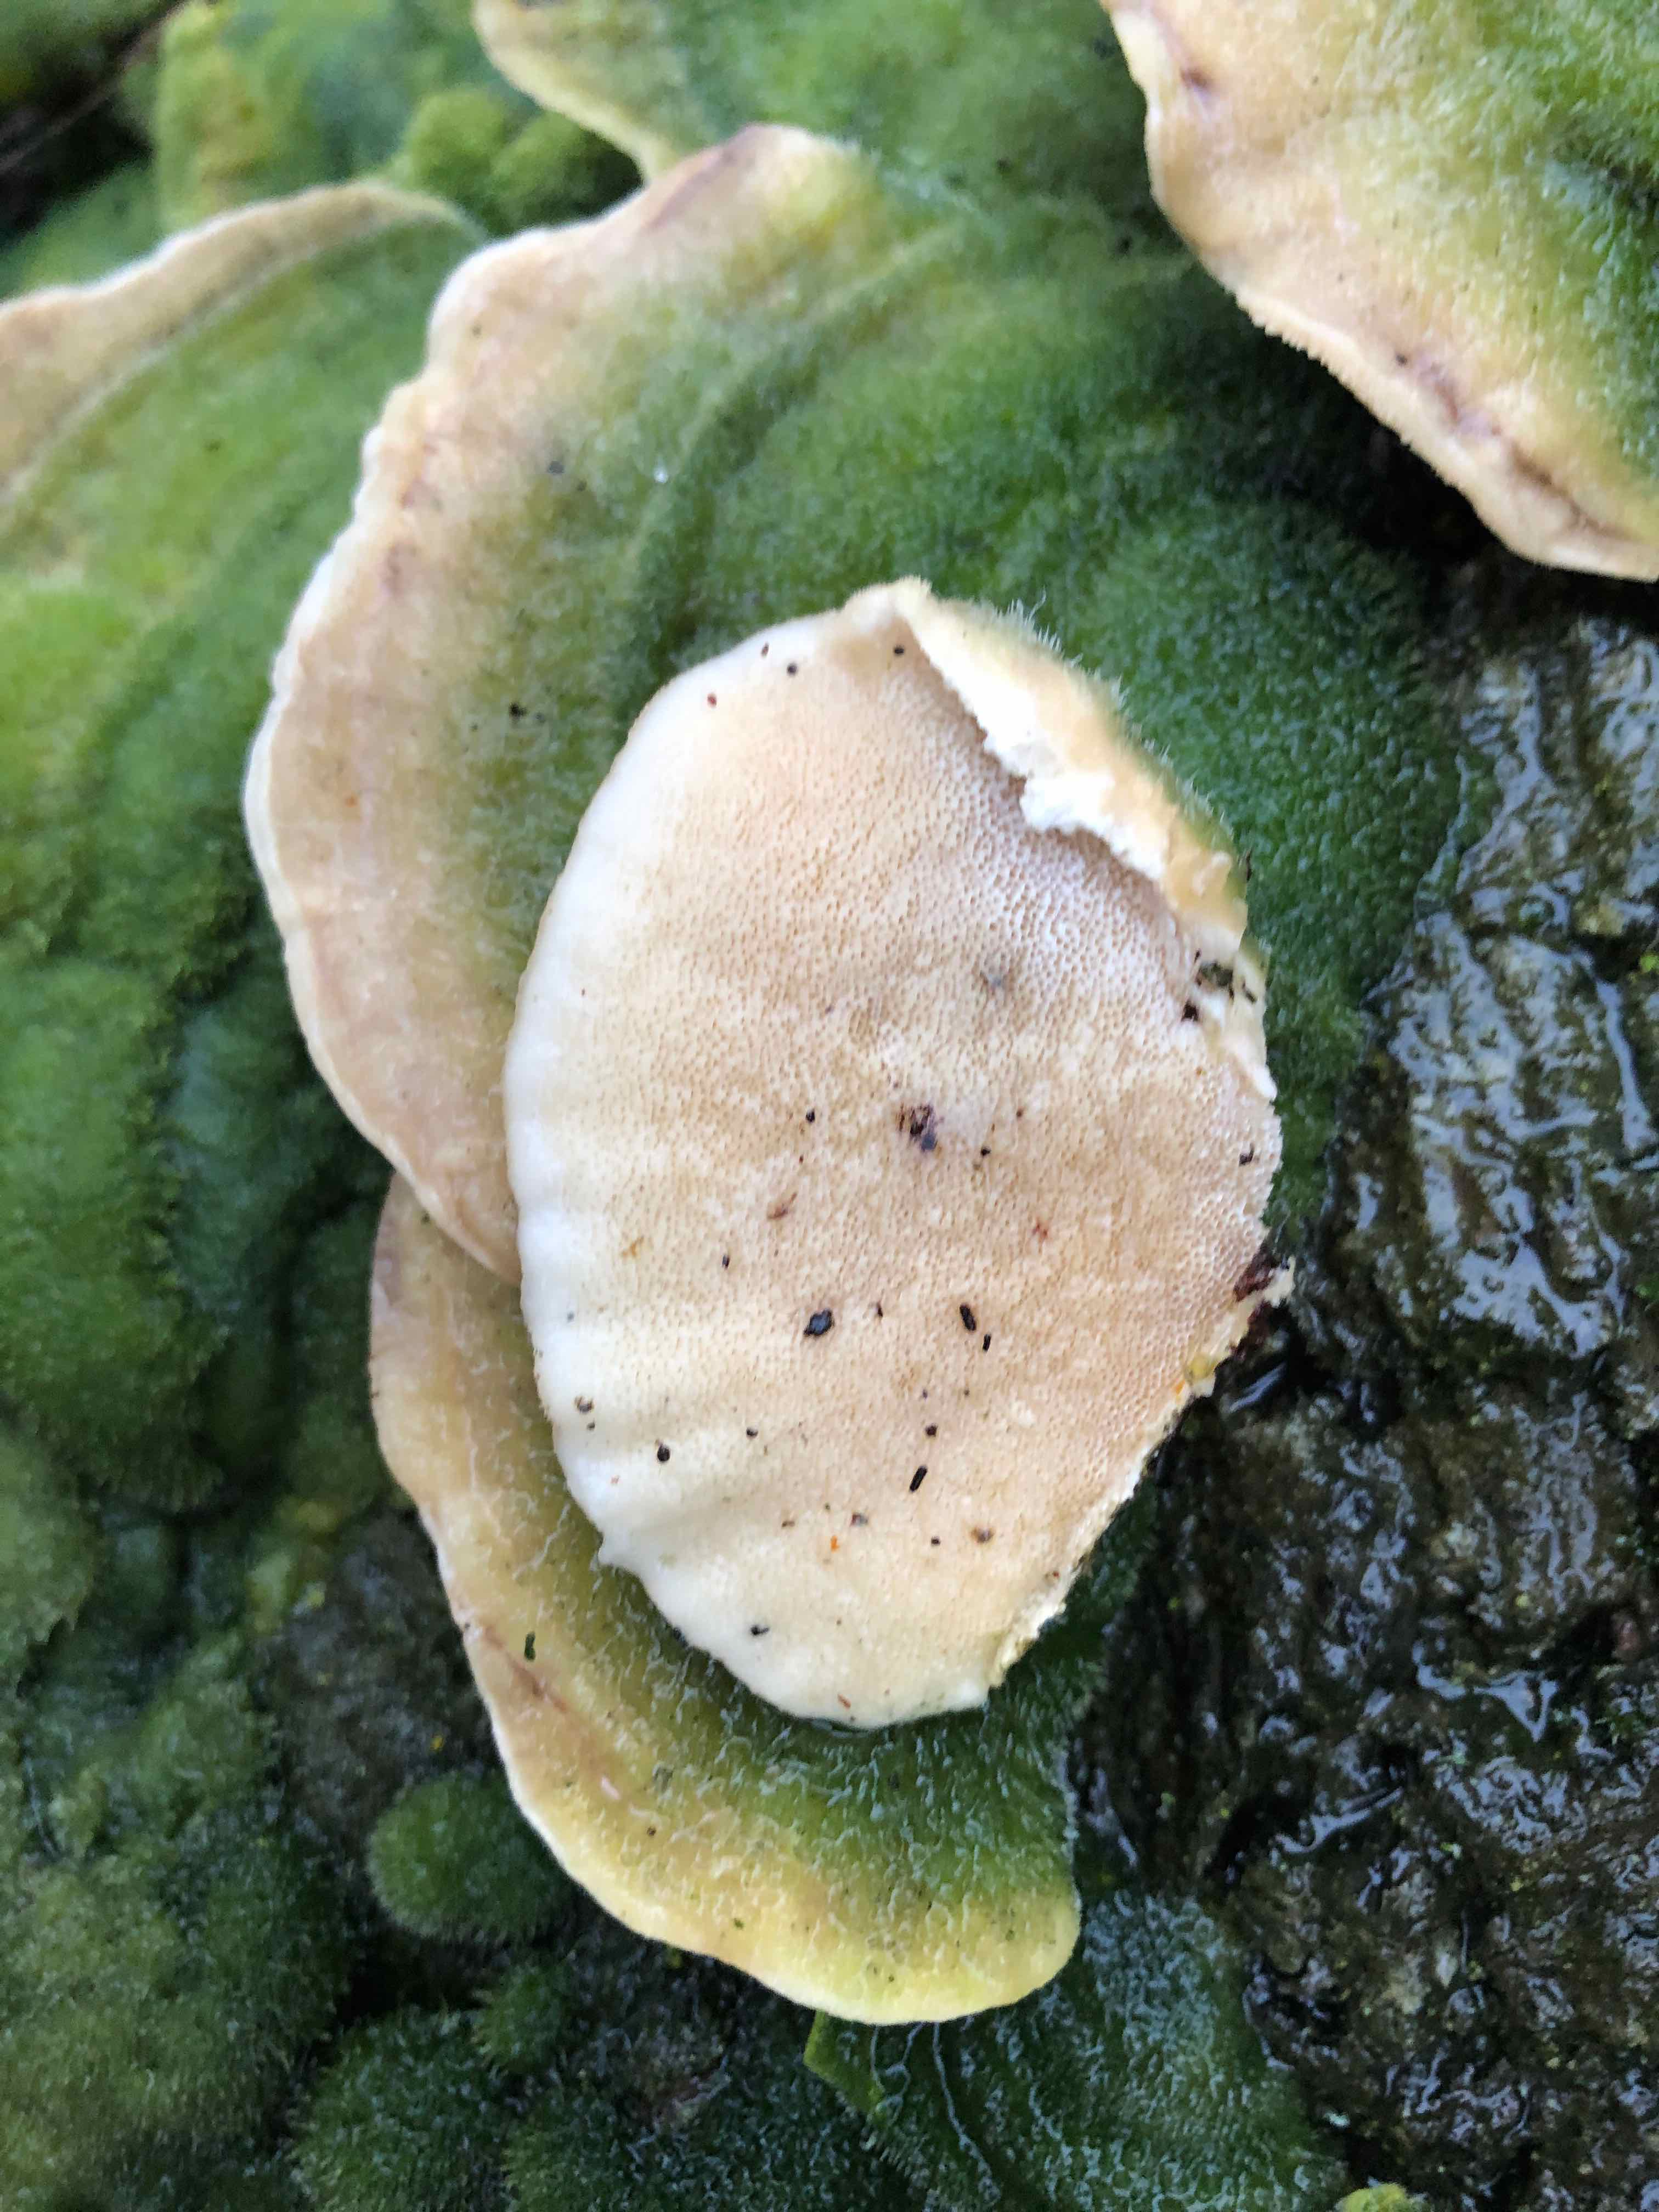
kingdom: Fungi
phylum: Basidiomycota
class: Agaricomycetes
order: Polyporales
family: Polyporaceae
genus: Trametes
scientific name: Trametes hirsuta
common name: håret læderporesvamp
